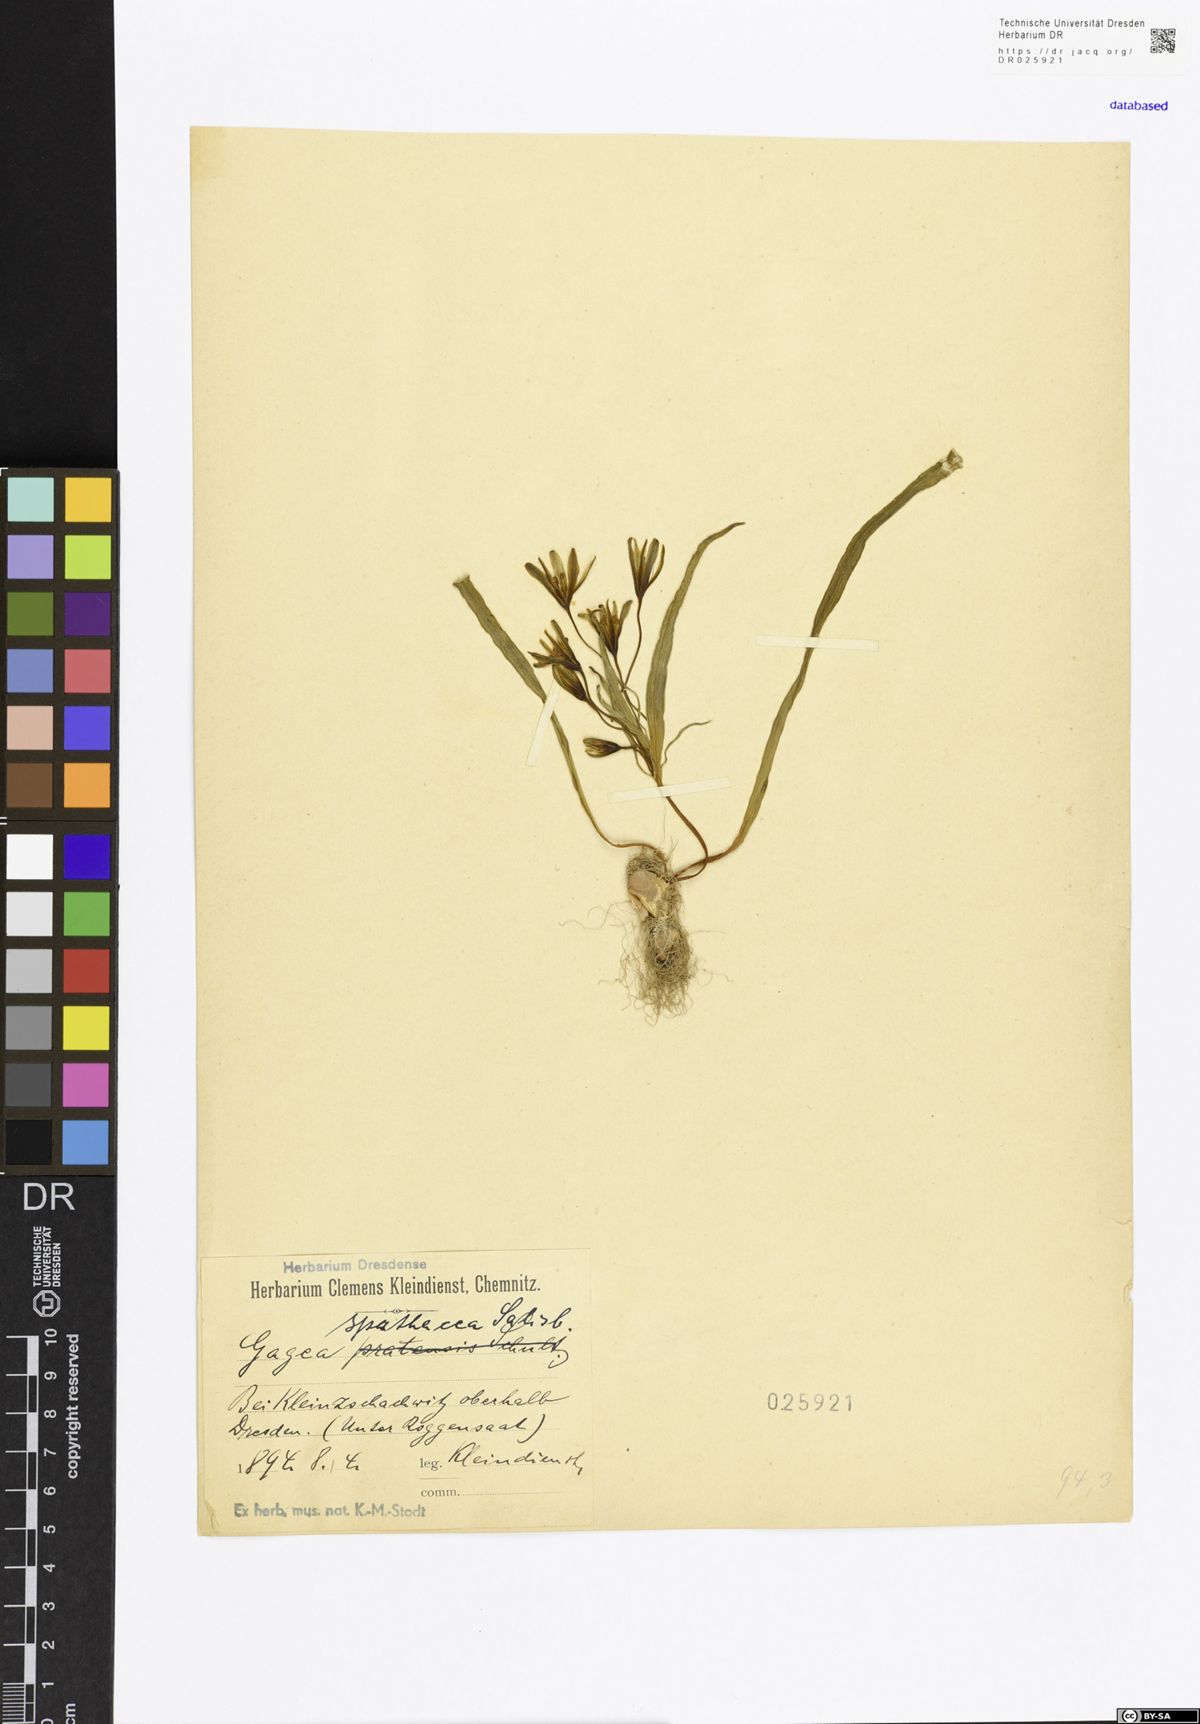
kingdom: Plantae
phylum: Tracheophyta
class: Liliopsida
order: Liliales
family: Liliaceae
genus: Gagea
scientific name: Gagea spathacea
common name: Belgian gagea
